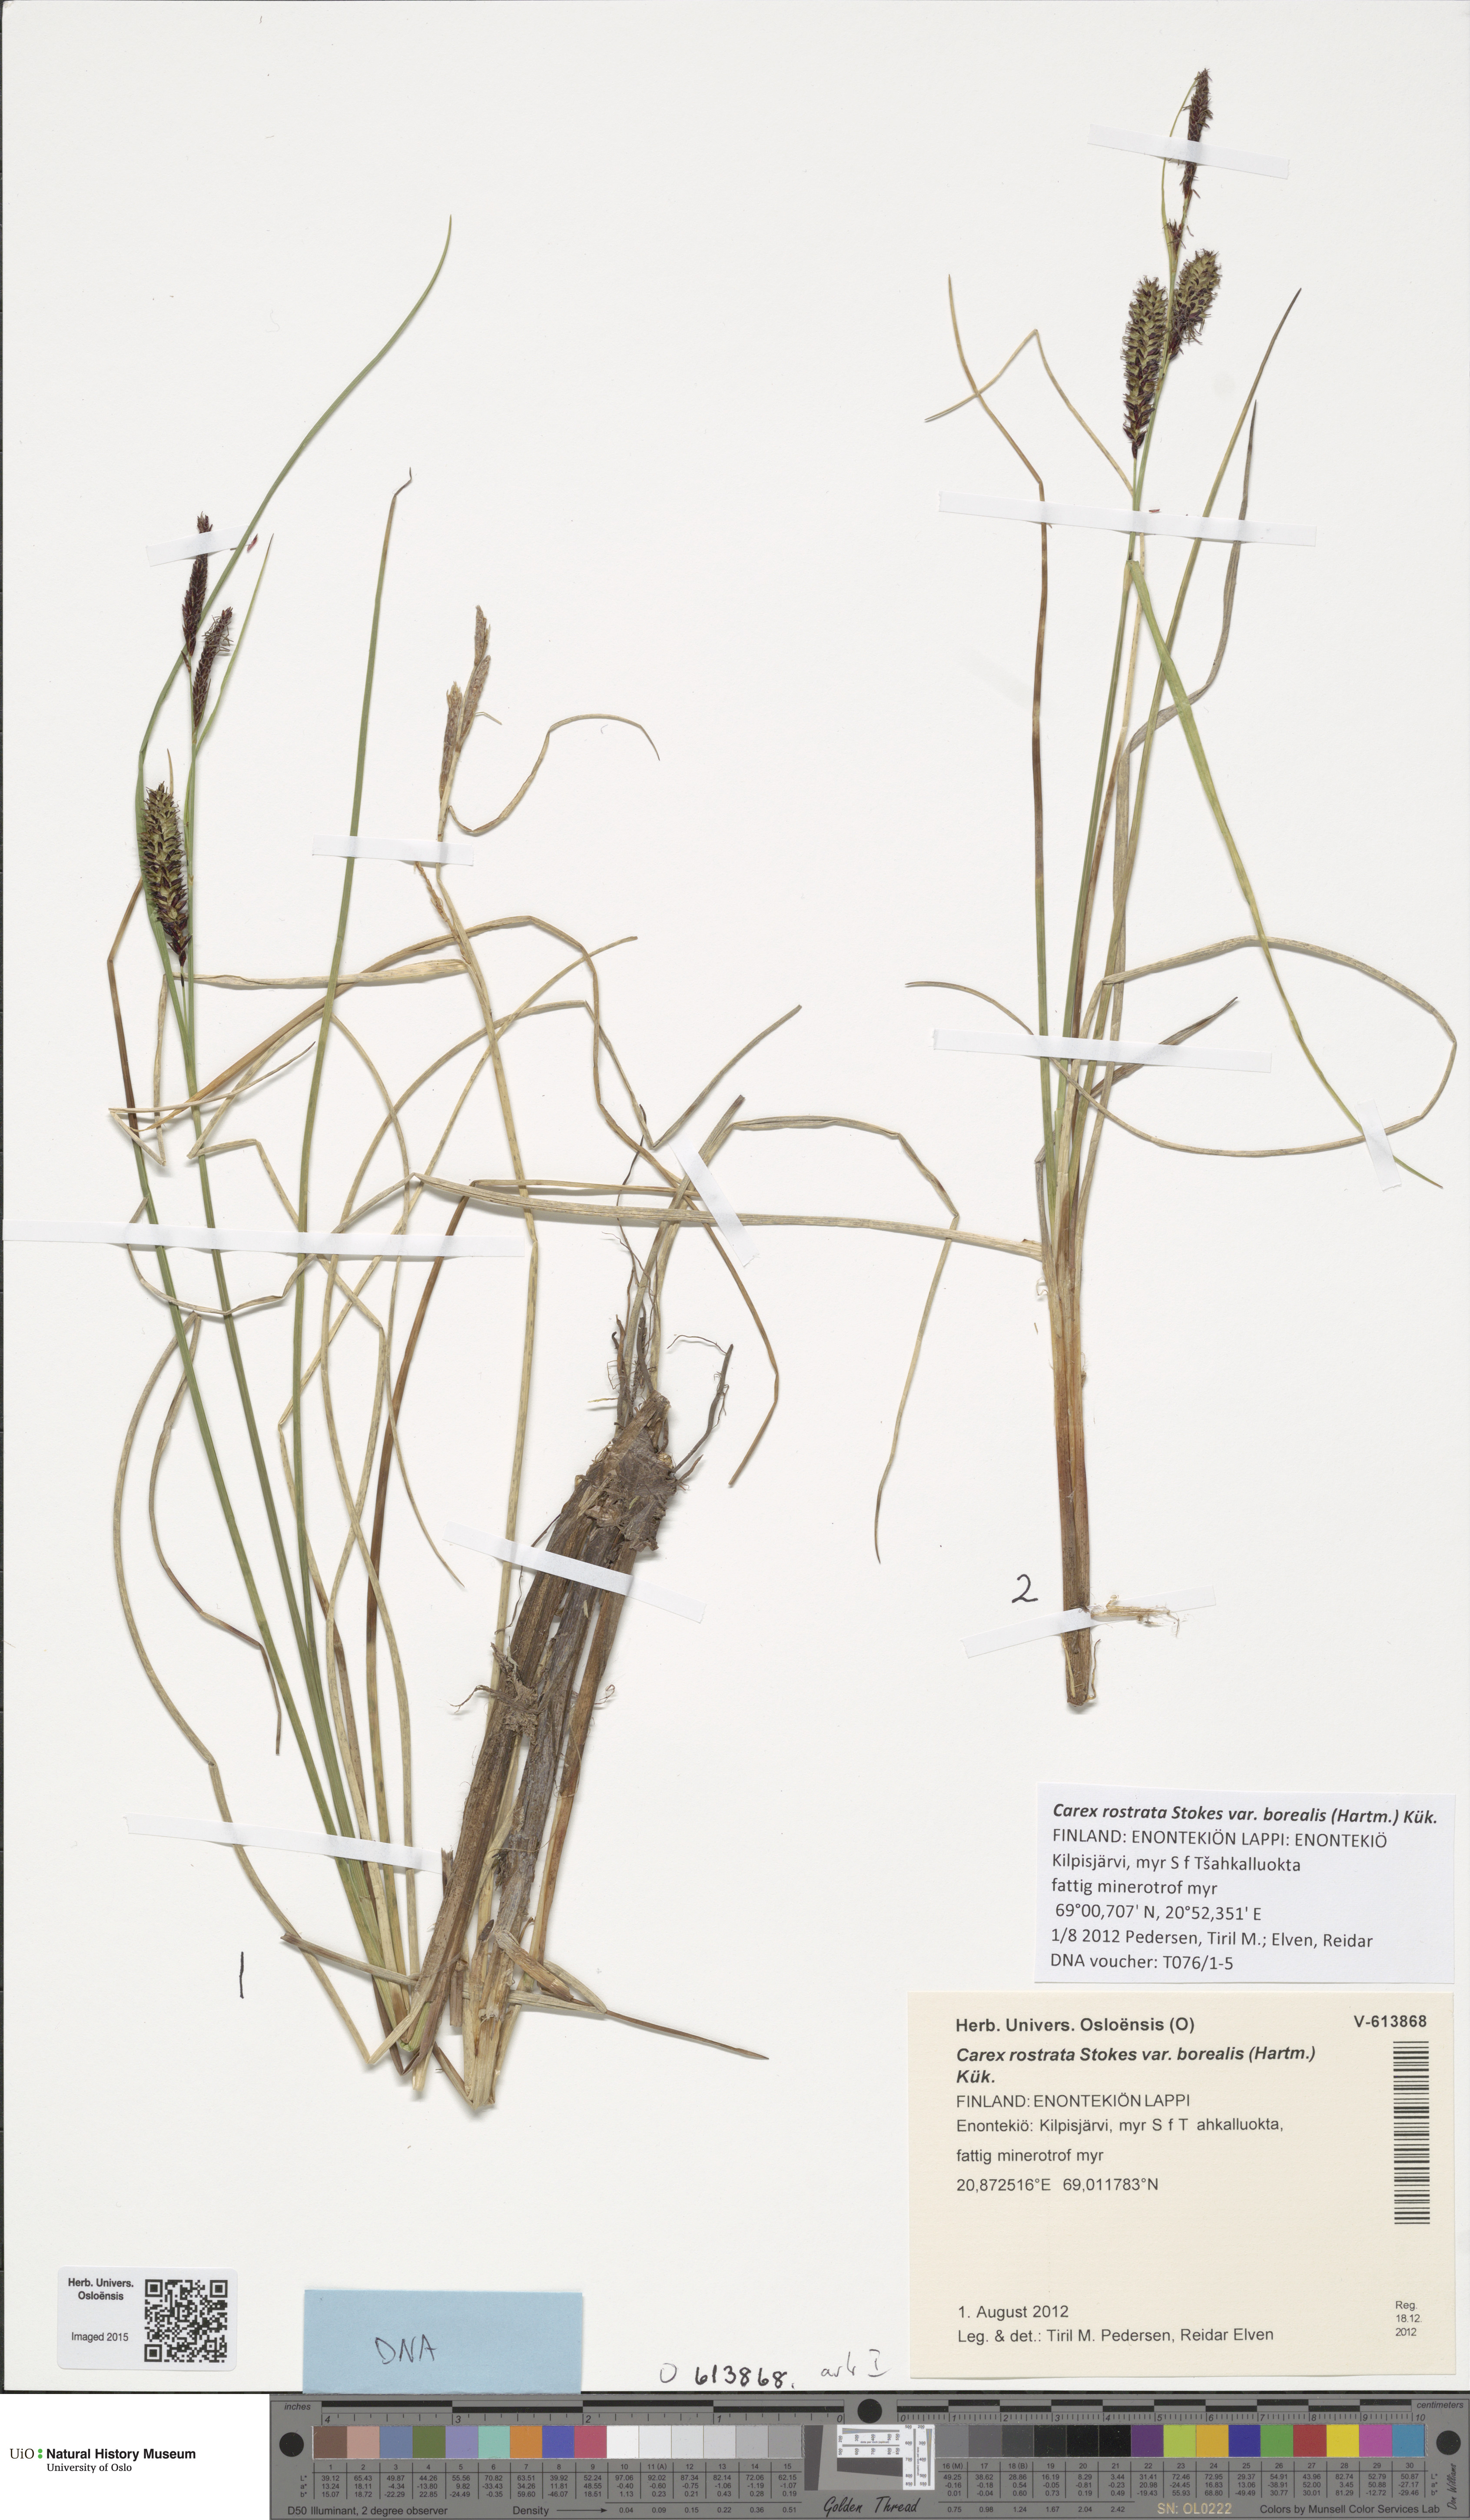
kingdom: Plantae
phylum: Tracheophyta
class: Liliopsida
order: Poales
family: Cyperaceae
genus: Carex
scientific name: Carex saamica
